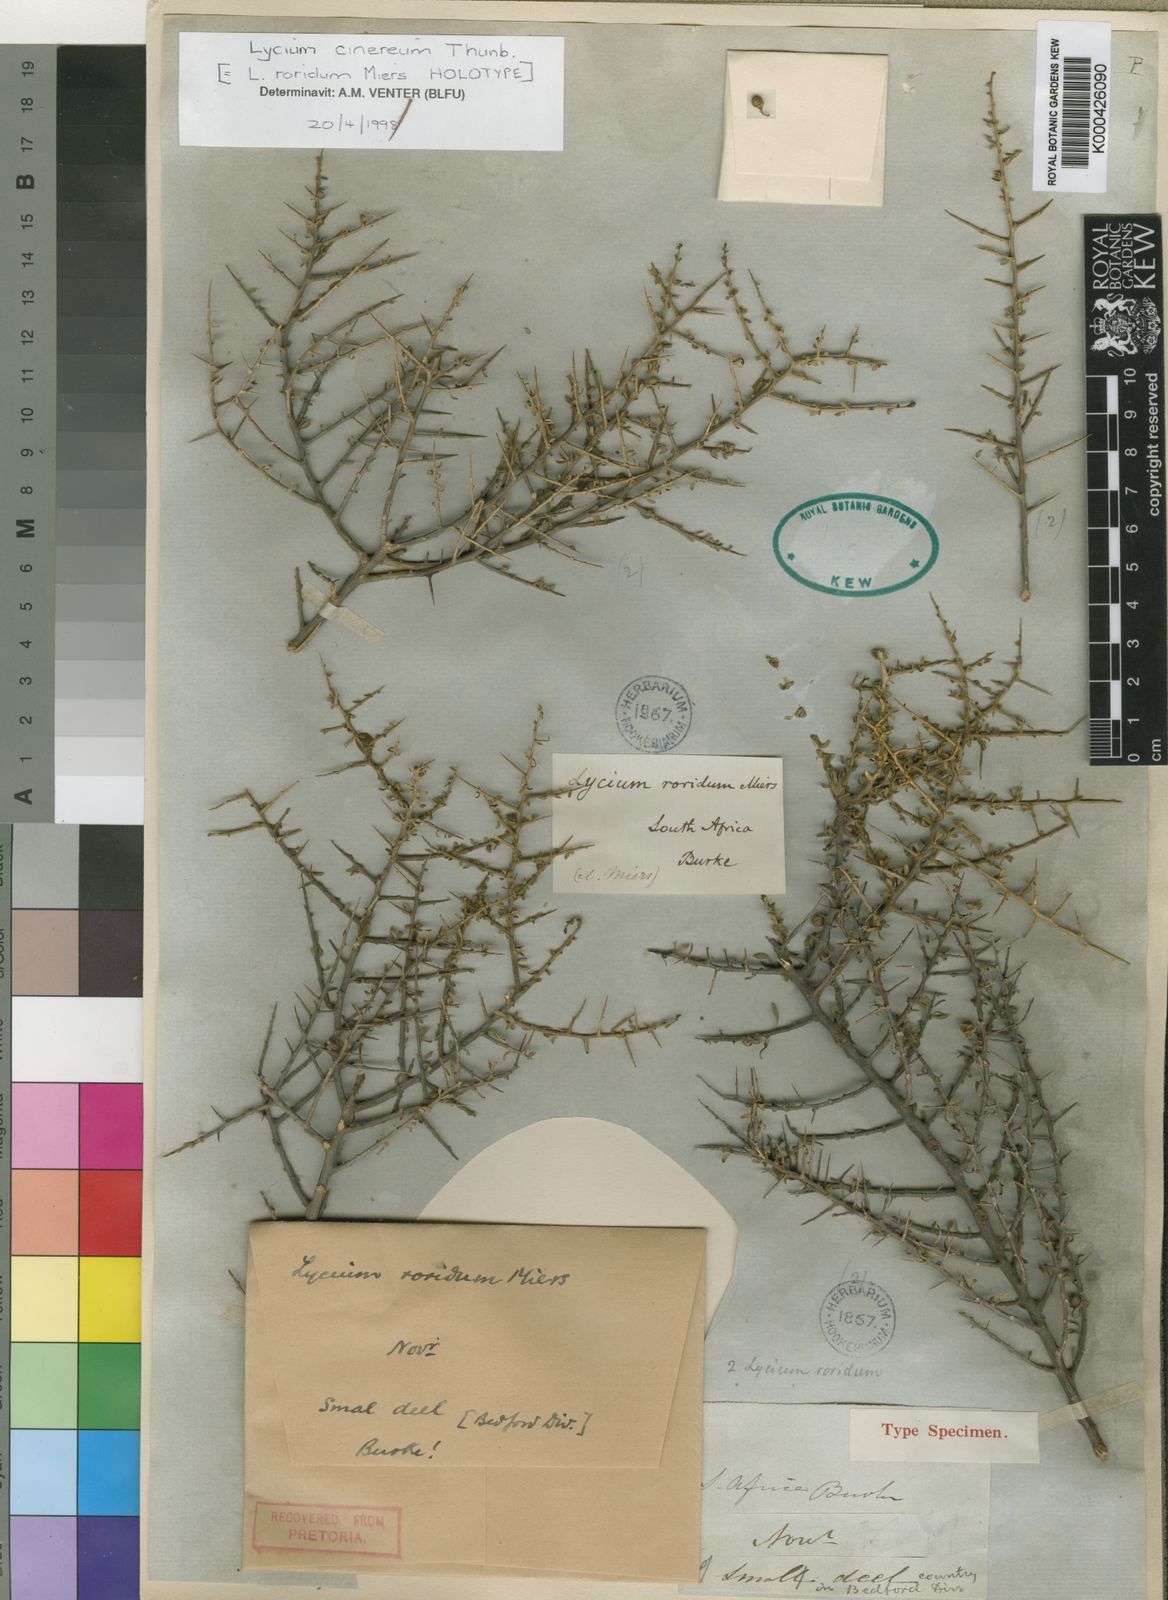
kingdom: Plantae
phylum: Tracheophyta
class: Magnoliopsida
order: Solanales
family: Solanaceae
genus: Lycium
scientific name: Lycium cinereum
